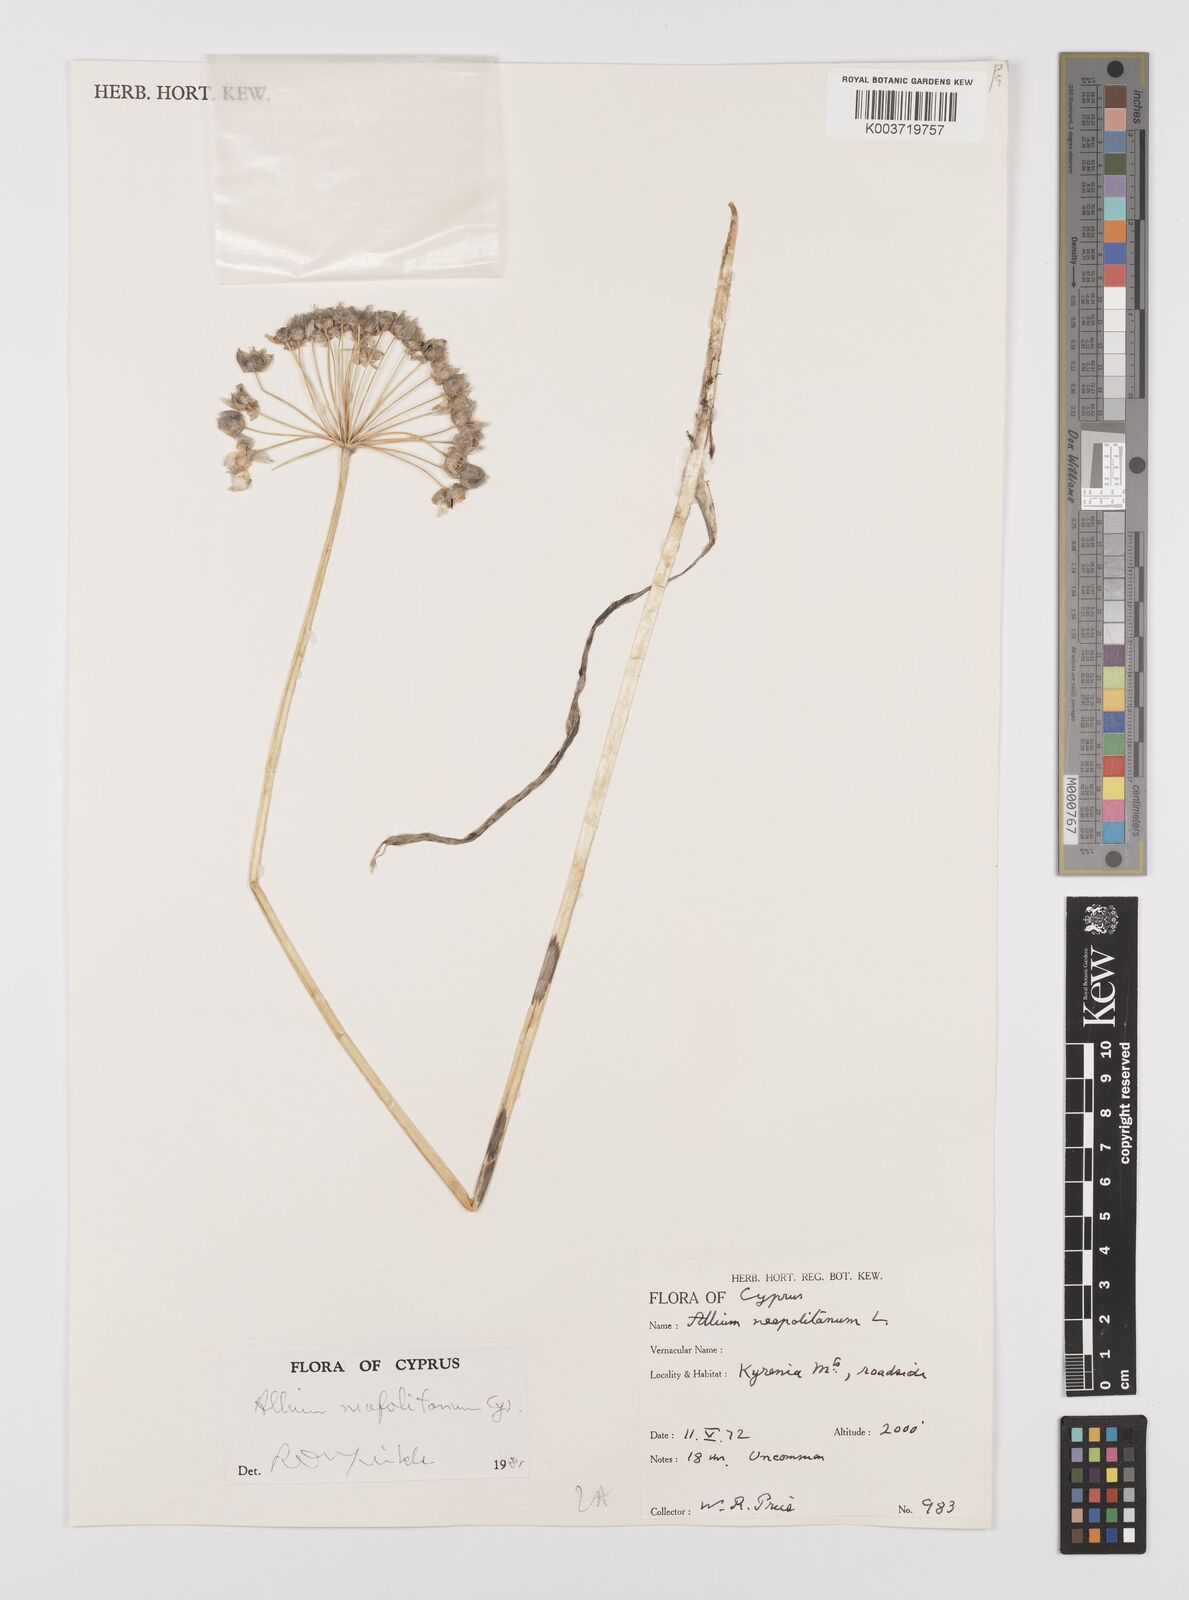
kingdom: Plantae
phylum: Tracheophyta
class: Liliopsida
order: Asparagales
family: Amaryllidaceae
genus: Allium
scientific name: Allium neapolitanum
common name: Neapolitan garlic
